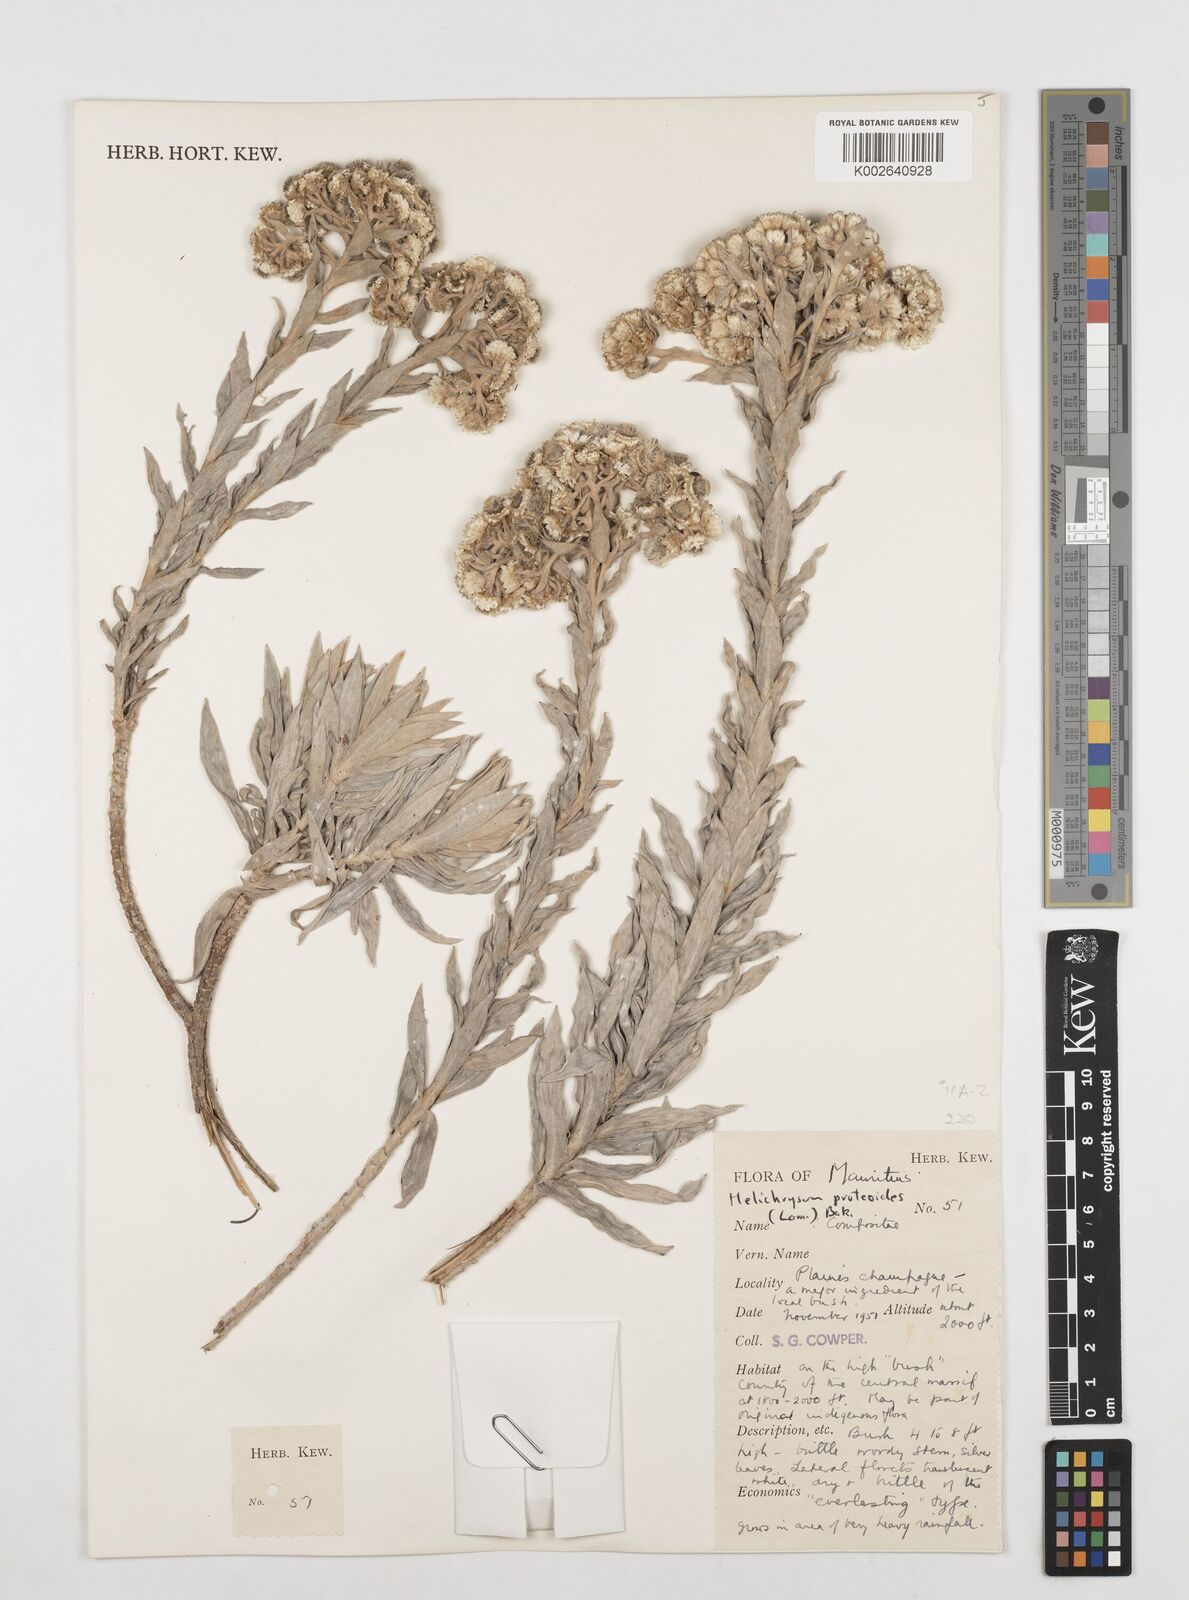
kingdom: Plantae
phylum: Tracheophyta
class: Magnoliopsida
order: Asterales
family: Asteraceae
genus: Helichrysum
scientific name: Helichrysum proteoides
